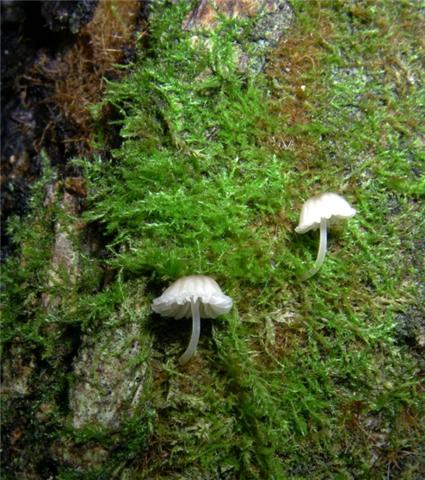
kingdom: Fungi
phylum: Basidiomycota
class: Agaricomycetes
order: Agaricales
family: Porotheleaceae
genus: Phloeomana
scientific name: Phloeomana hiemalis
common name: sen huesvamp
